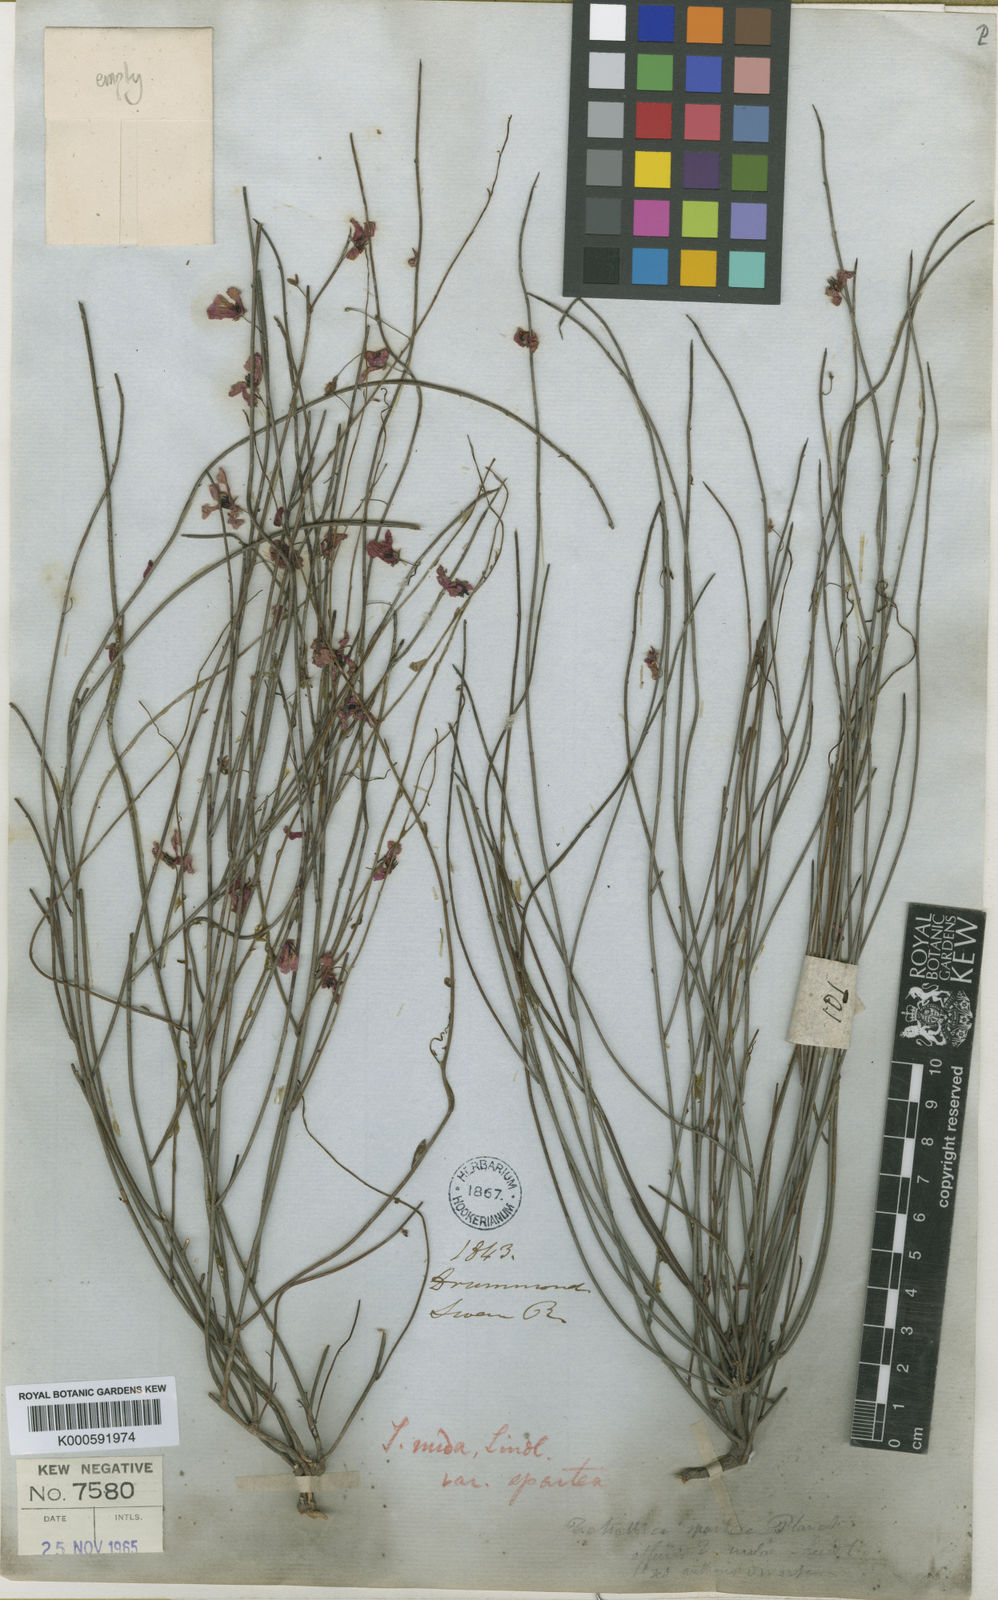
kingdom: Plantae
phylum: Tracheophyta
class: Magnoliopsida
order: Oxalidales
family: Elaeocarpaceae
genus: Tetratheca
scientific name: Tetratheca spartea
